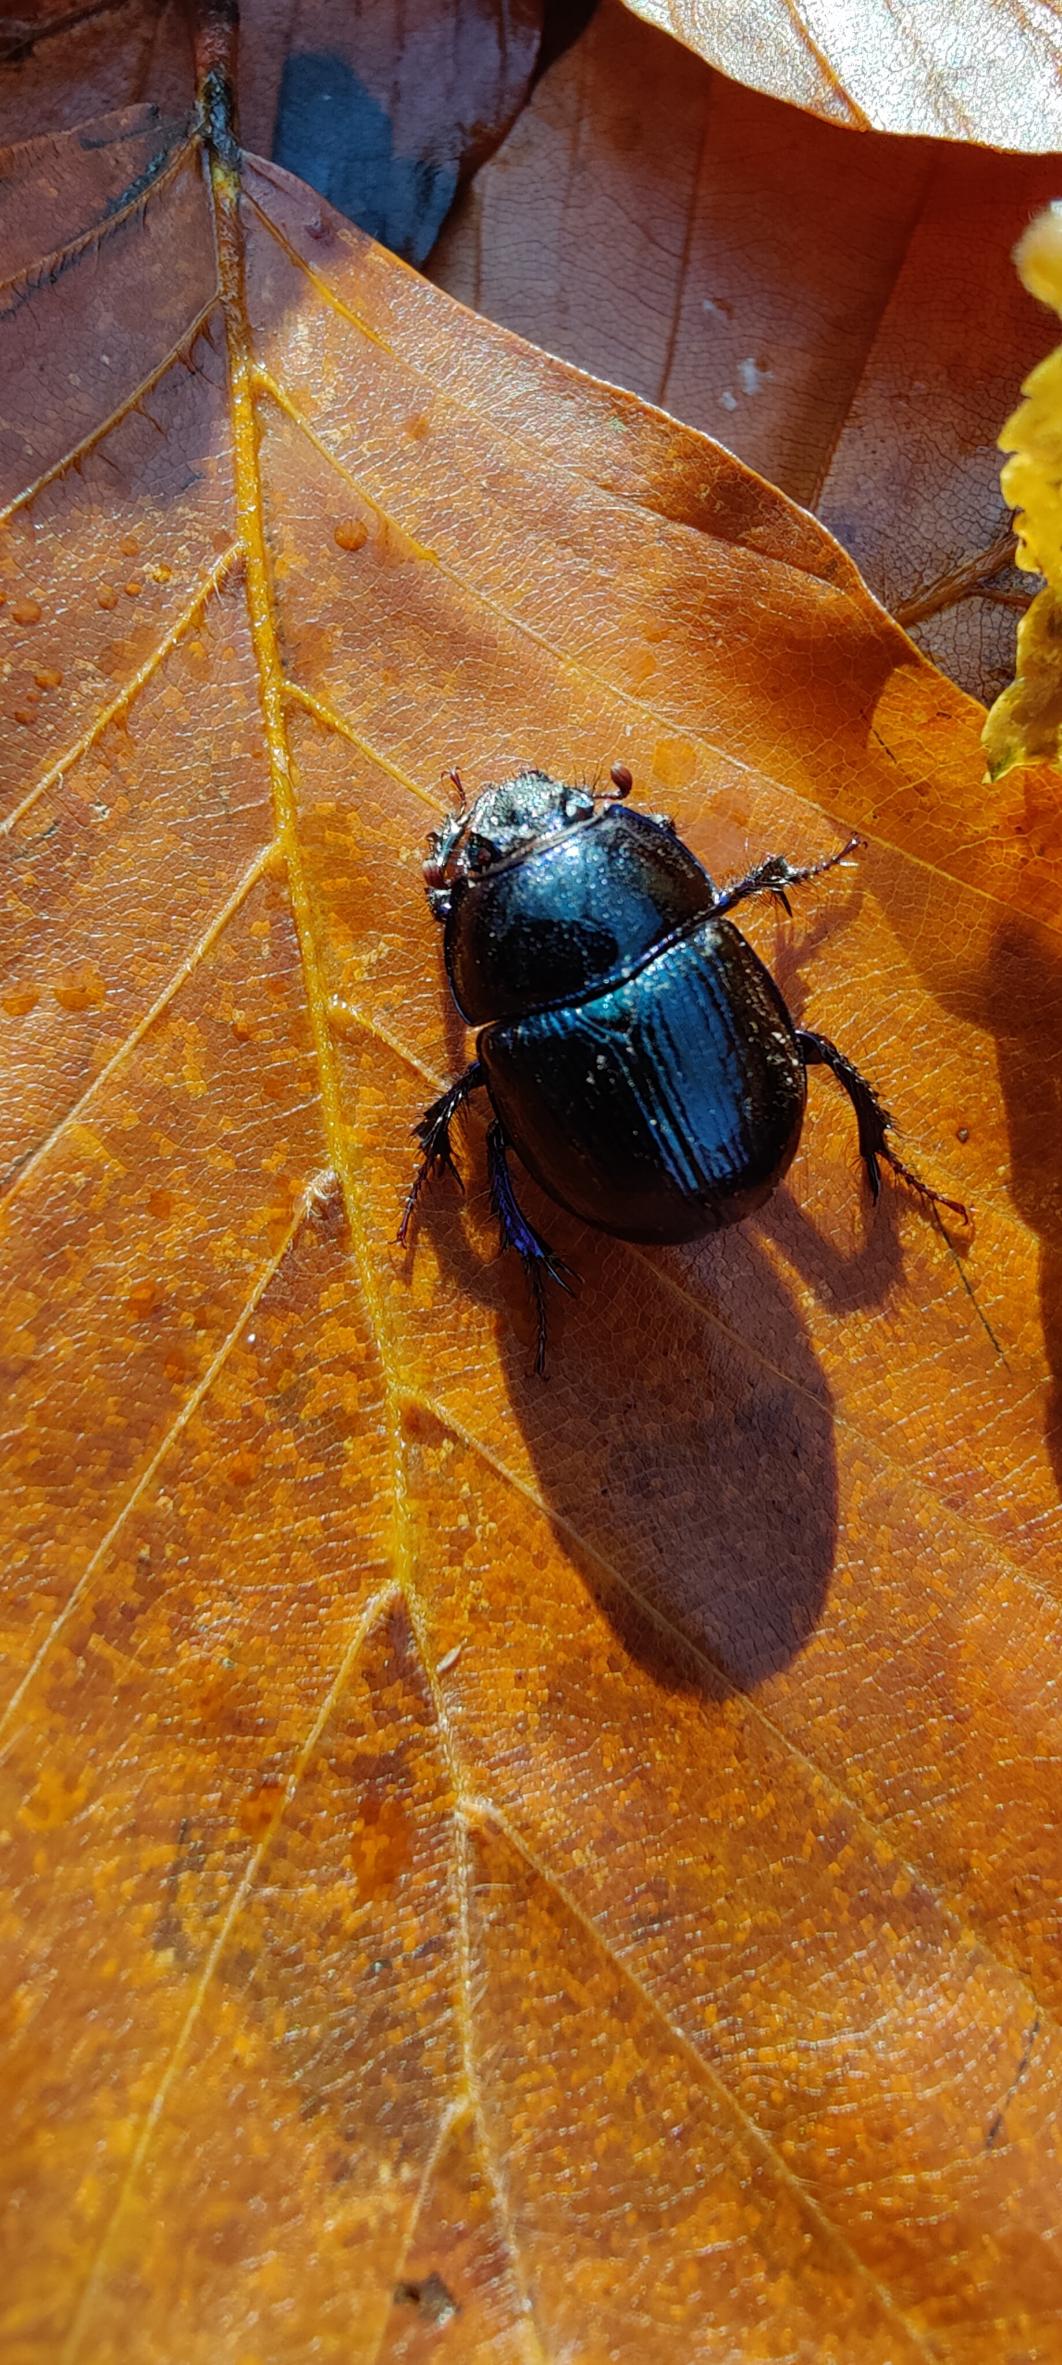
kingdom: Animalia
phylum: Arthropoda
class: Insecta
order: Coleoptera
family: Geotrupidae
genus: Anoplotrupes
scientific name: Anoplotrupes stercorosus
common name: Skovskarnbasse
